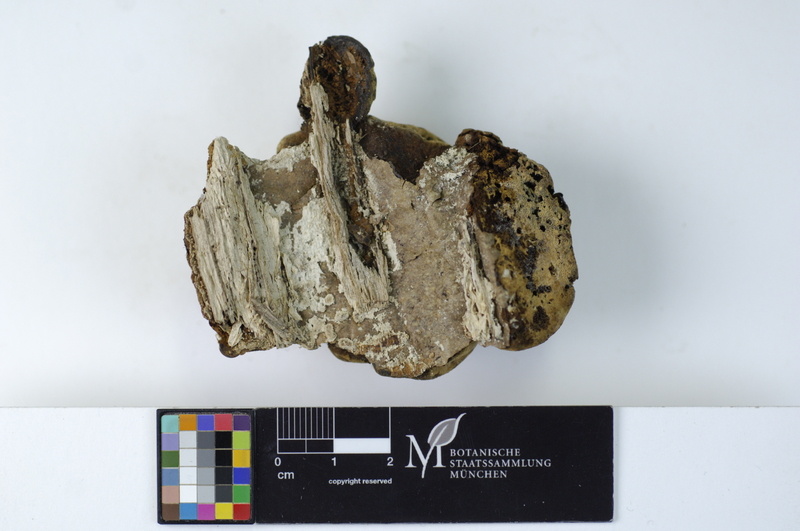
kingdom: Plantae
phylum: Tracheophyta
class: Magnoliopsida
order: Fagales
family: Fagaceae
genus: Fagus
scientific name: Fagus sylvatica
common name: Beech
